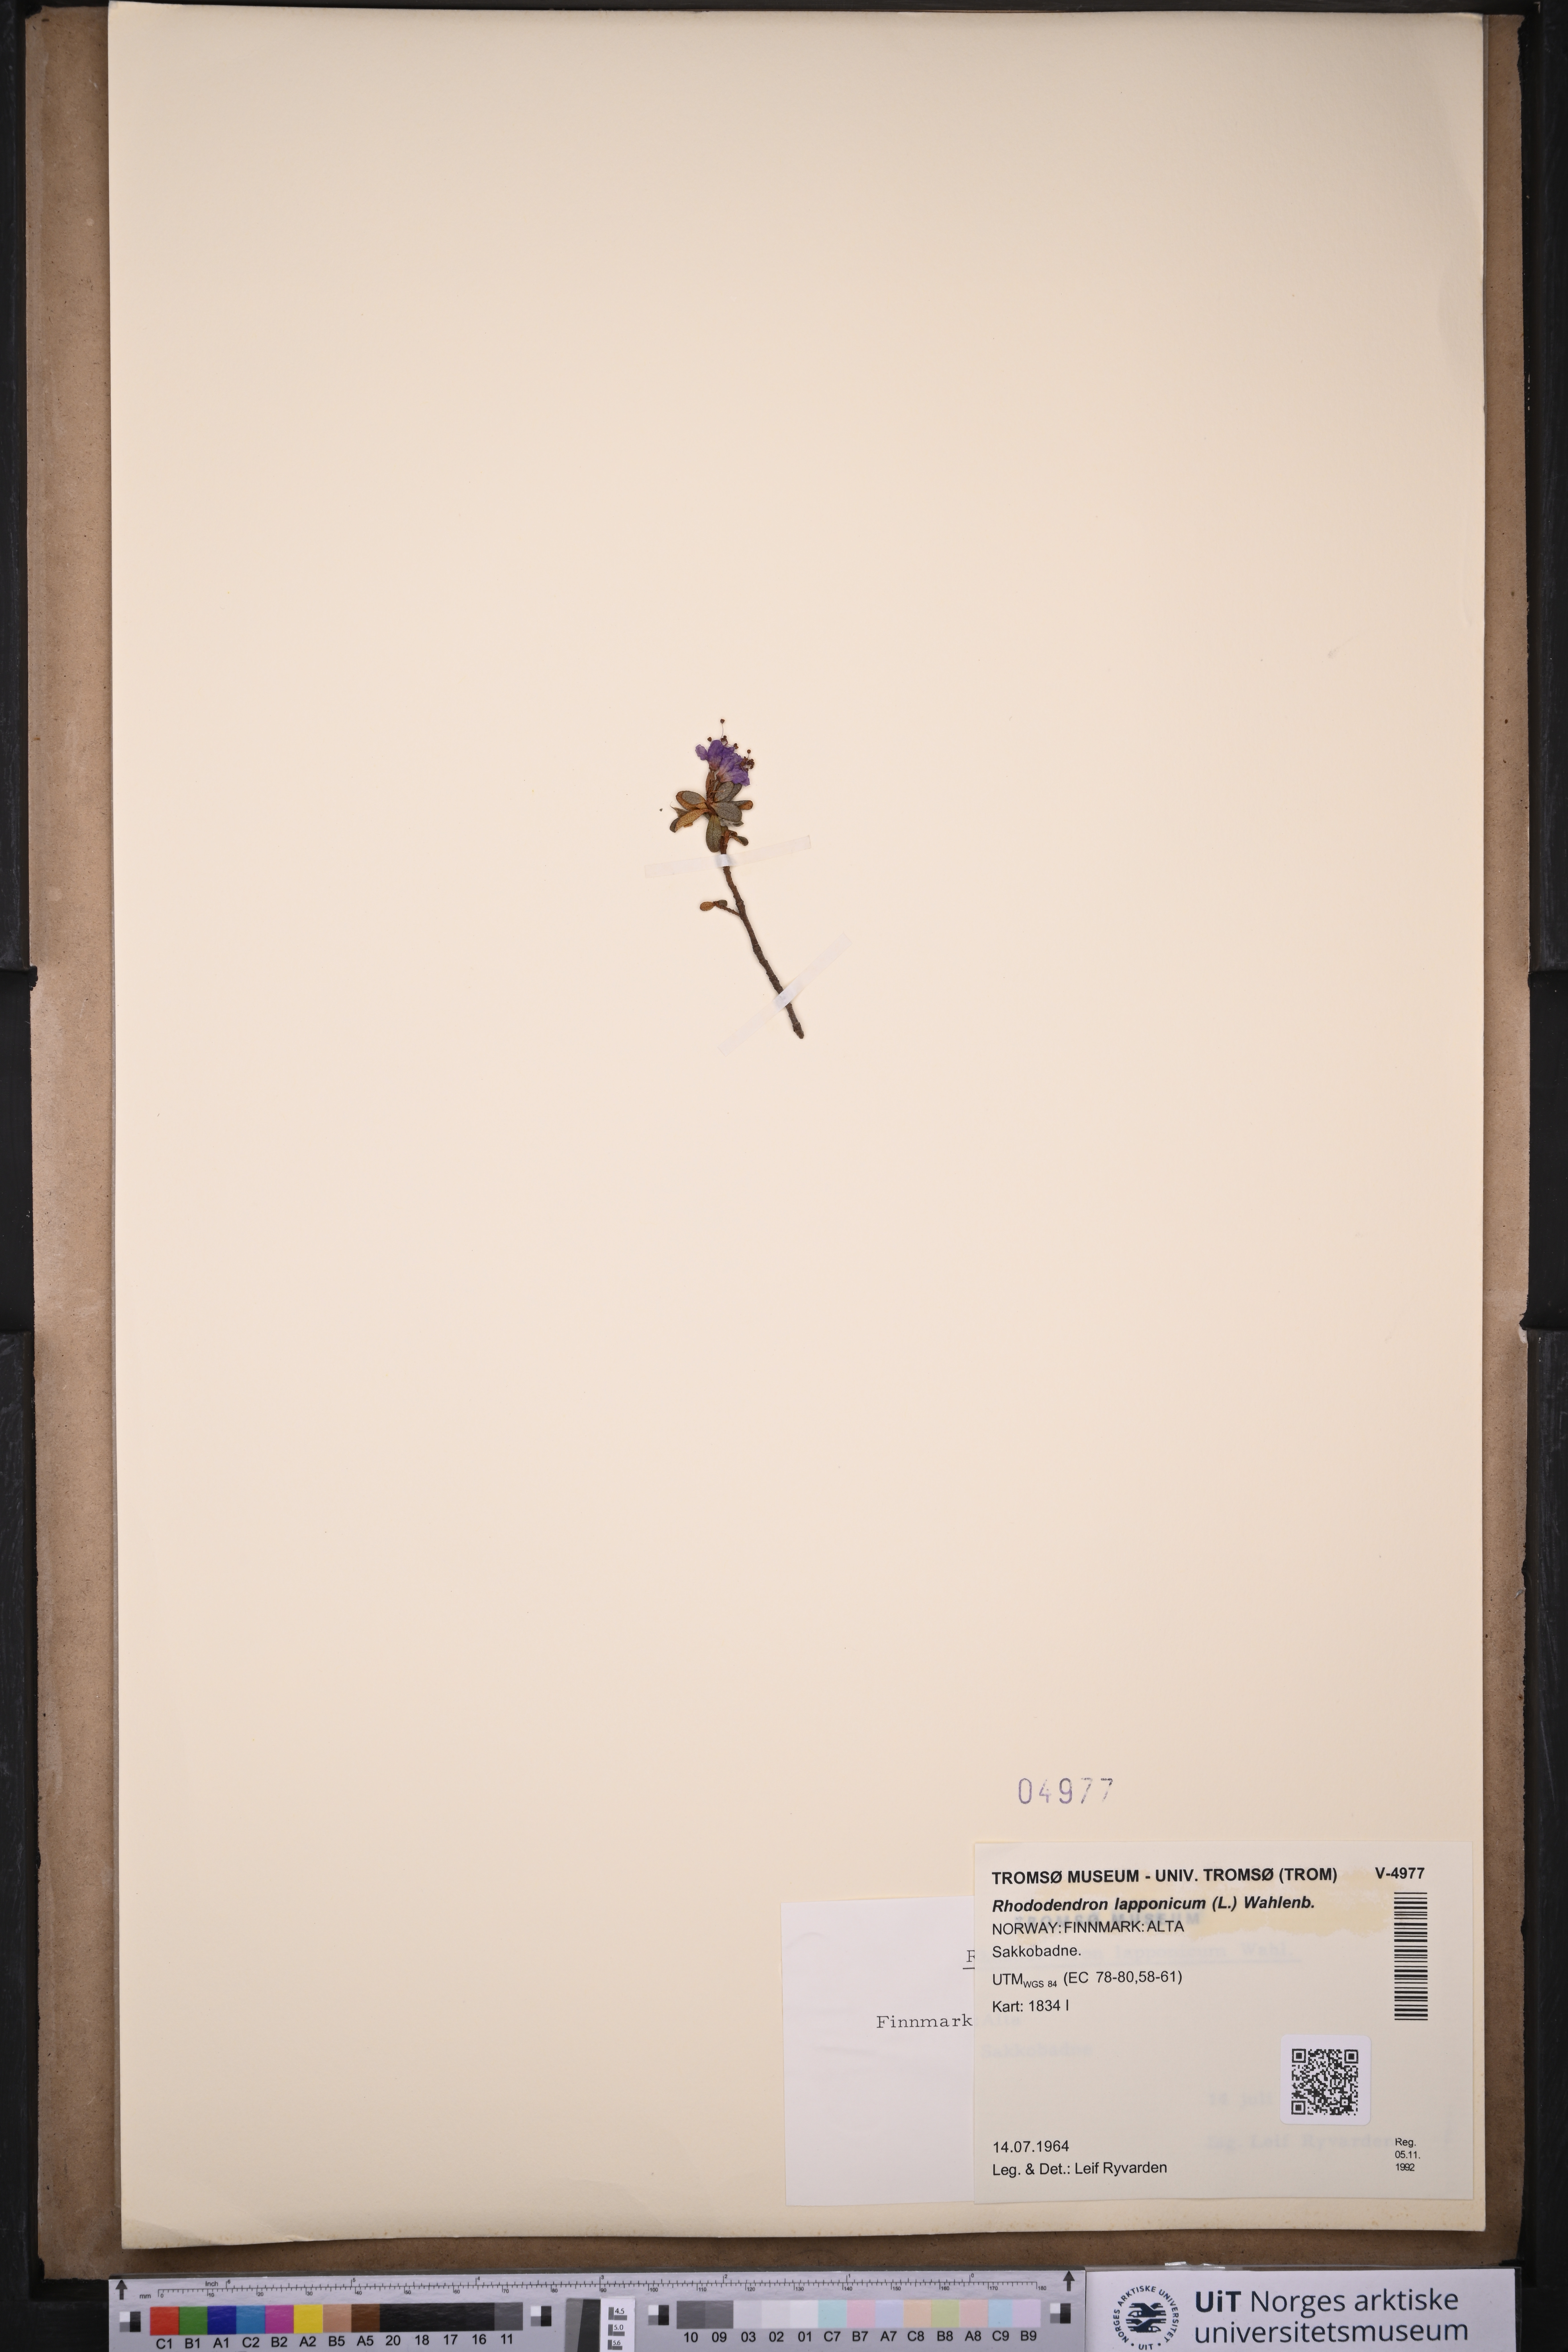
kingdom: Plantae
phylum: Tracheophyta
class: Magnoliopsida
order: Ericales
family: Ericaceae
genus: Rhododendron
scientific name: Rhododendron lapponicum
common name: Lapland rhododendron
